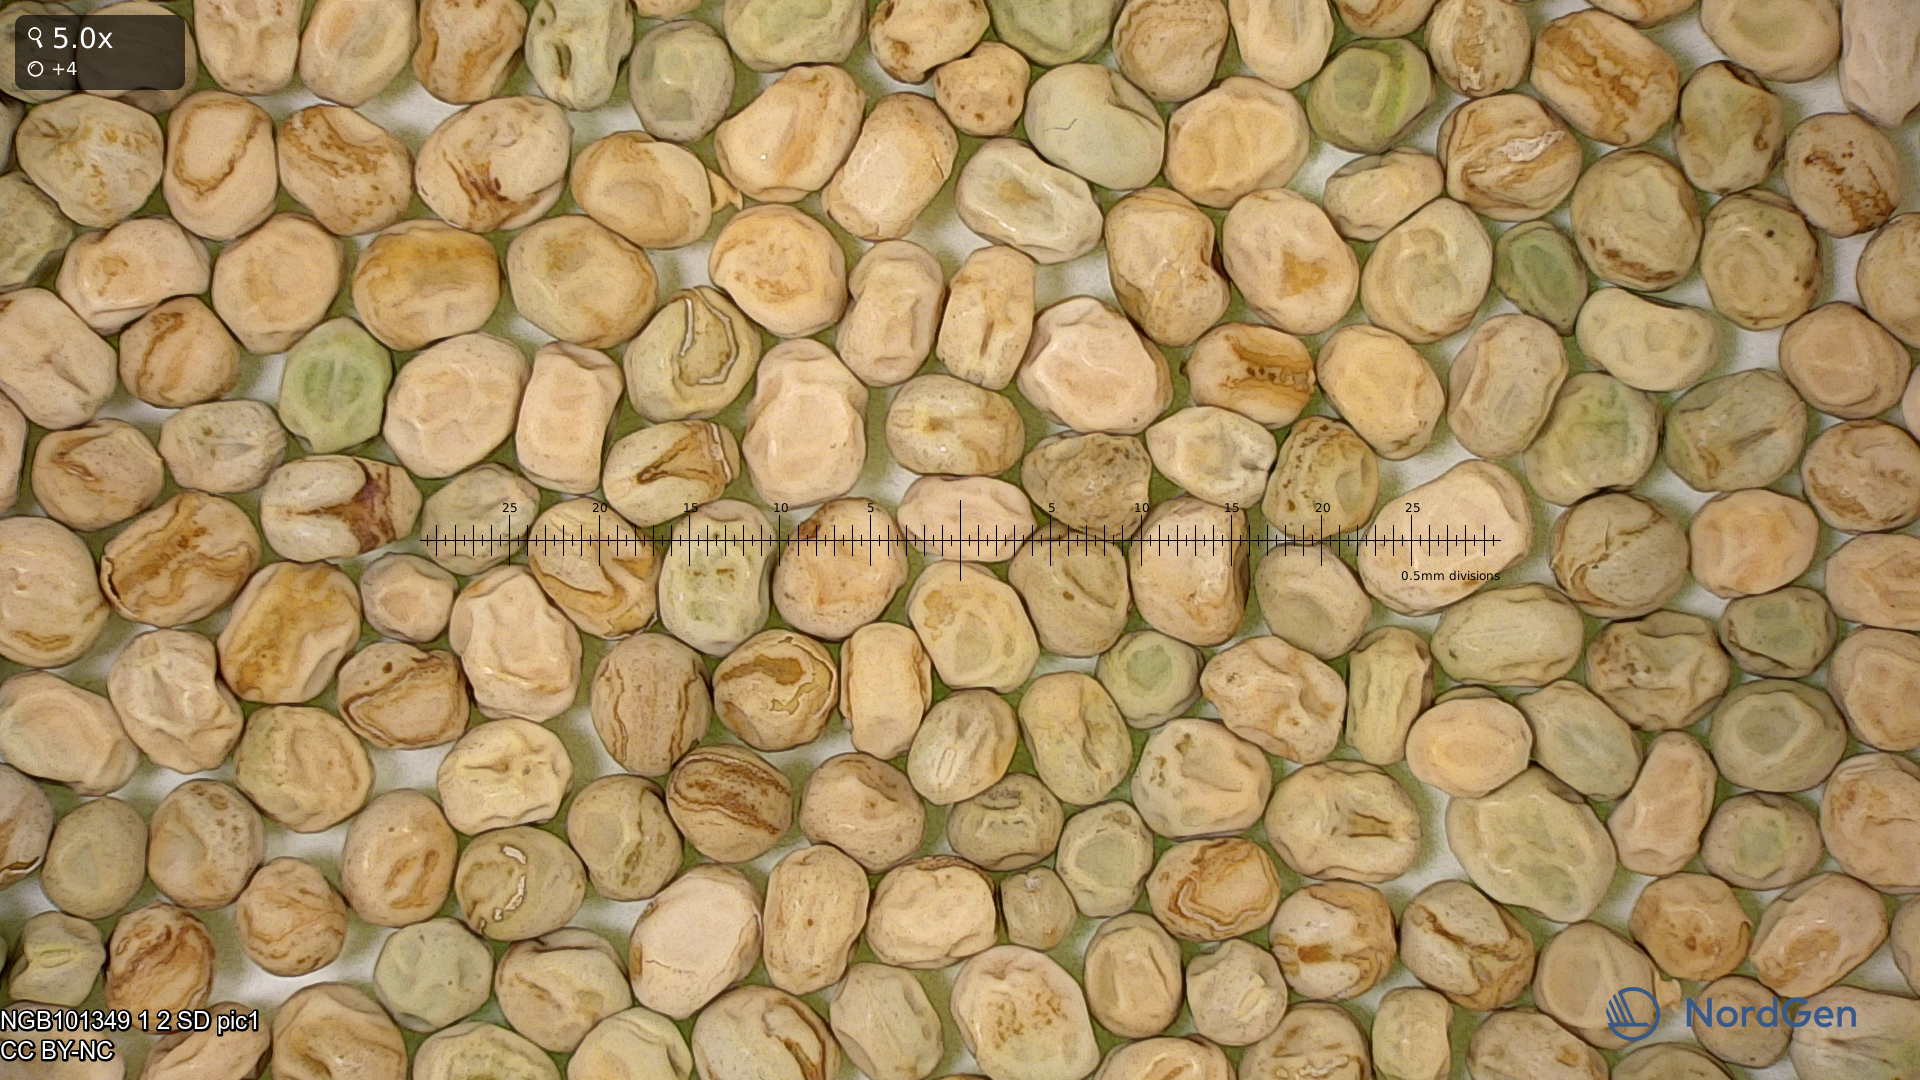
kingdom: Plantae
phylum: Tracheophyta
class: Magnoliopsida
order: Fabales
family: Fabaceae
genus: Lathyrus
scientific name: Lathyrus oleraceus
